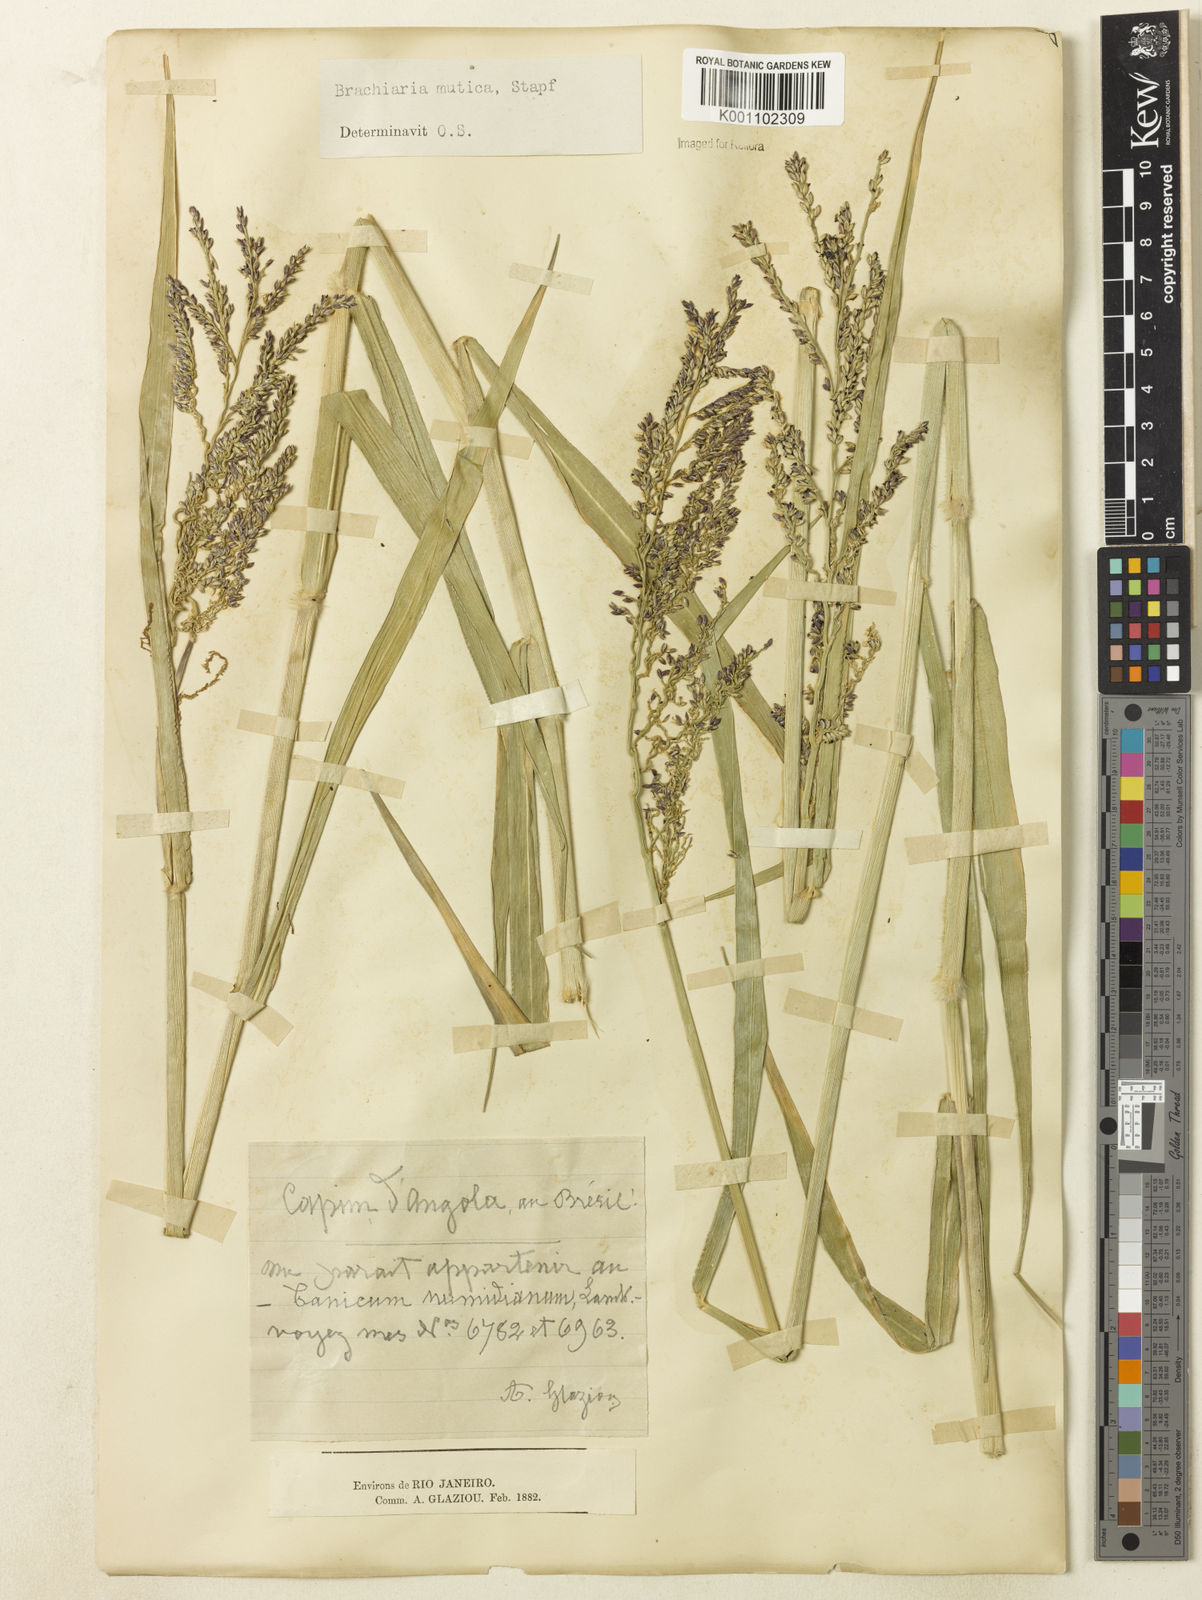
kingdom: Plantae
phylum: Tracheophyta
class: Liliopsida
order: Poales
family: Poaceae
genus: Urochloa
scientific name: Urochloa mutica
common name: Para grass
